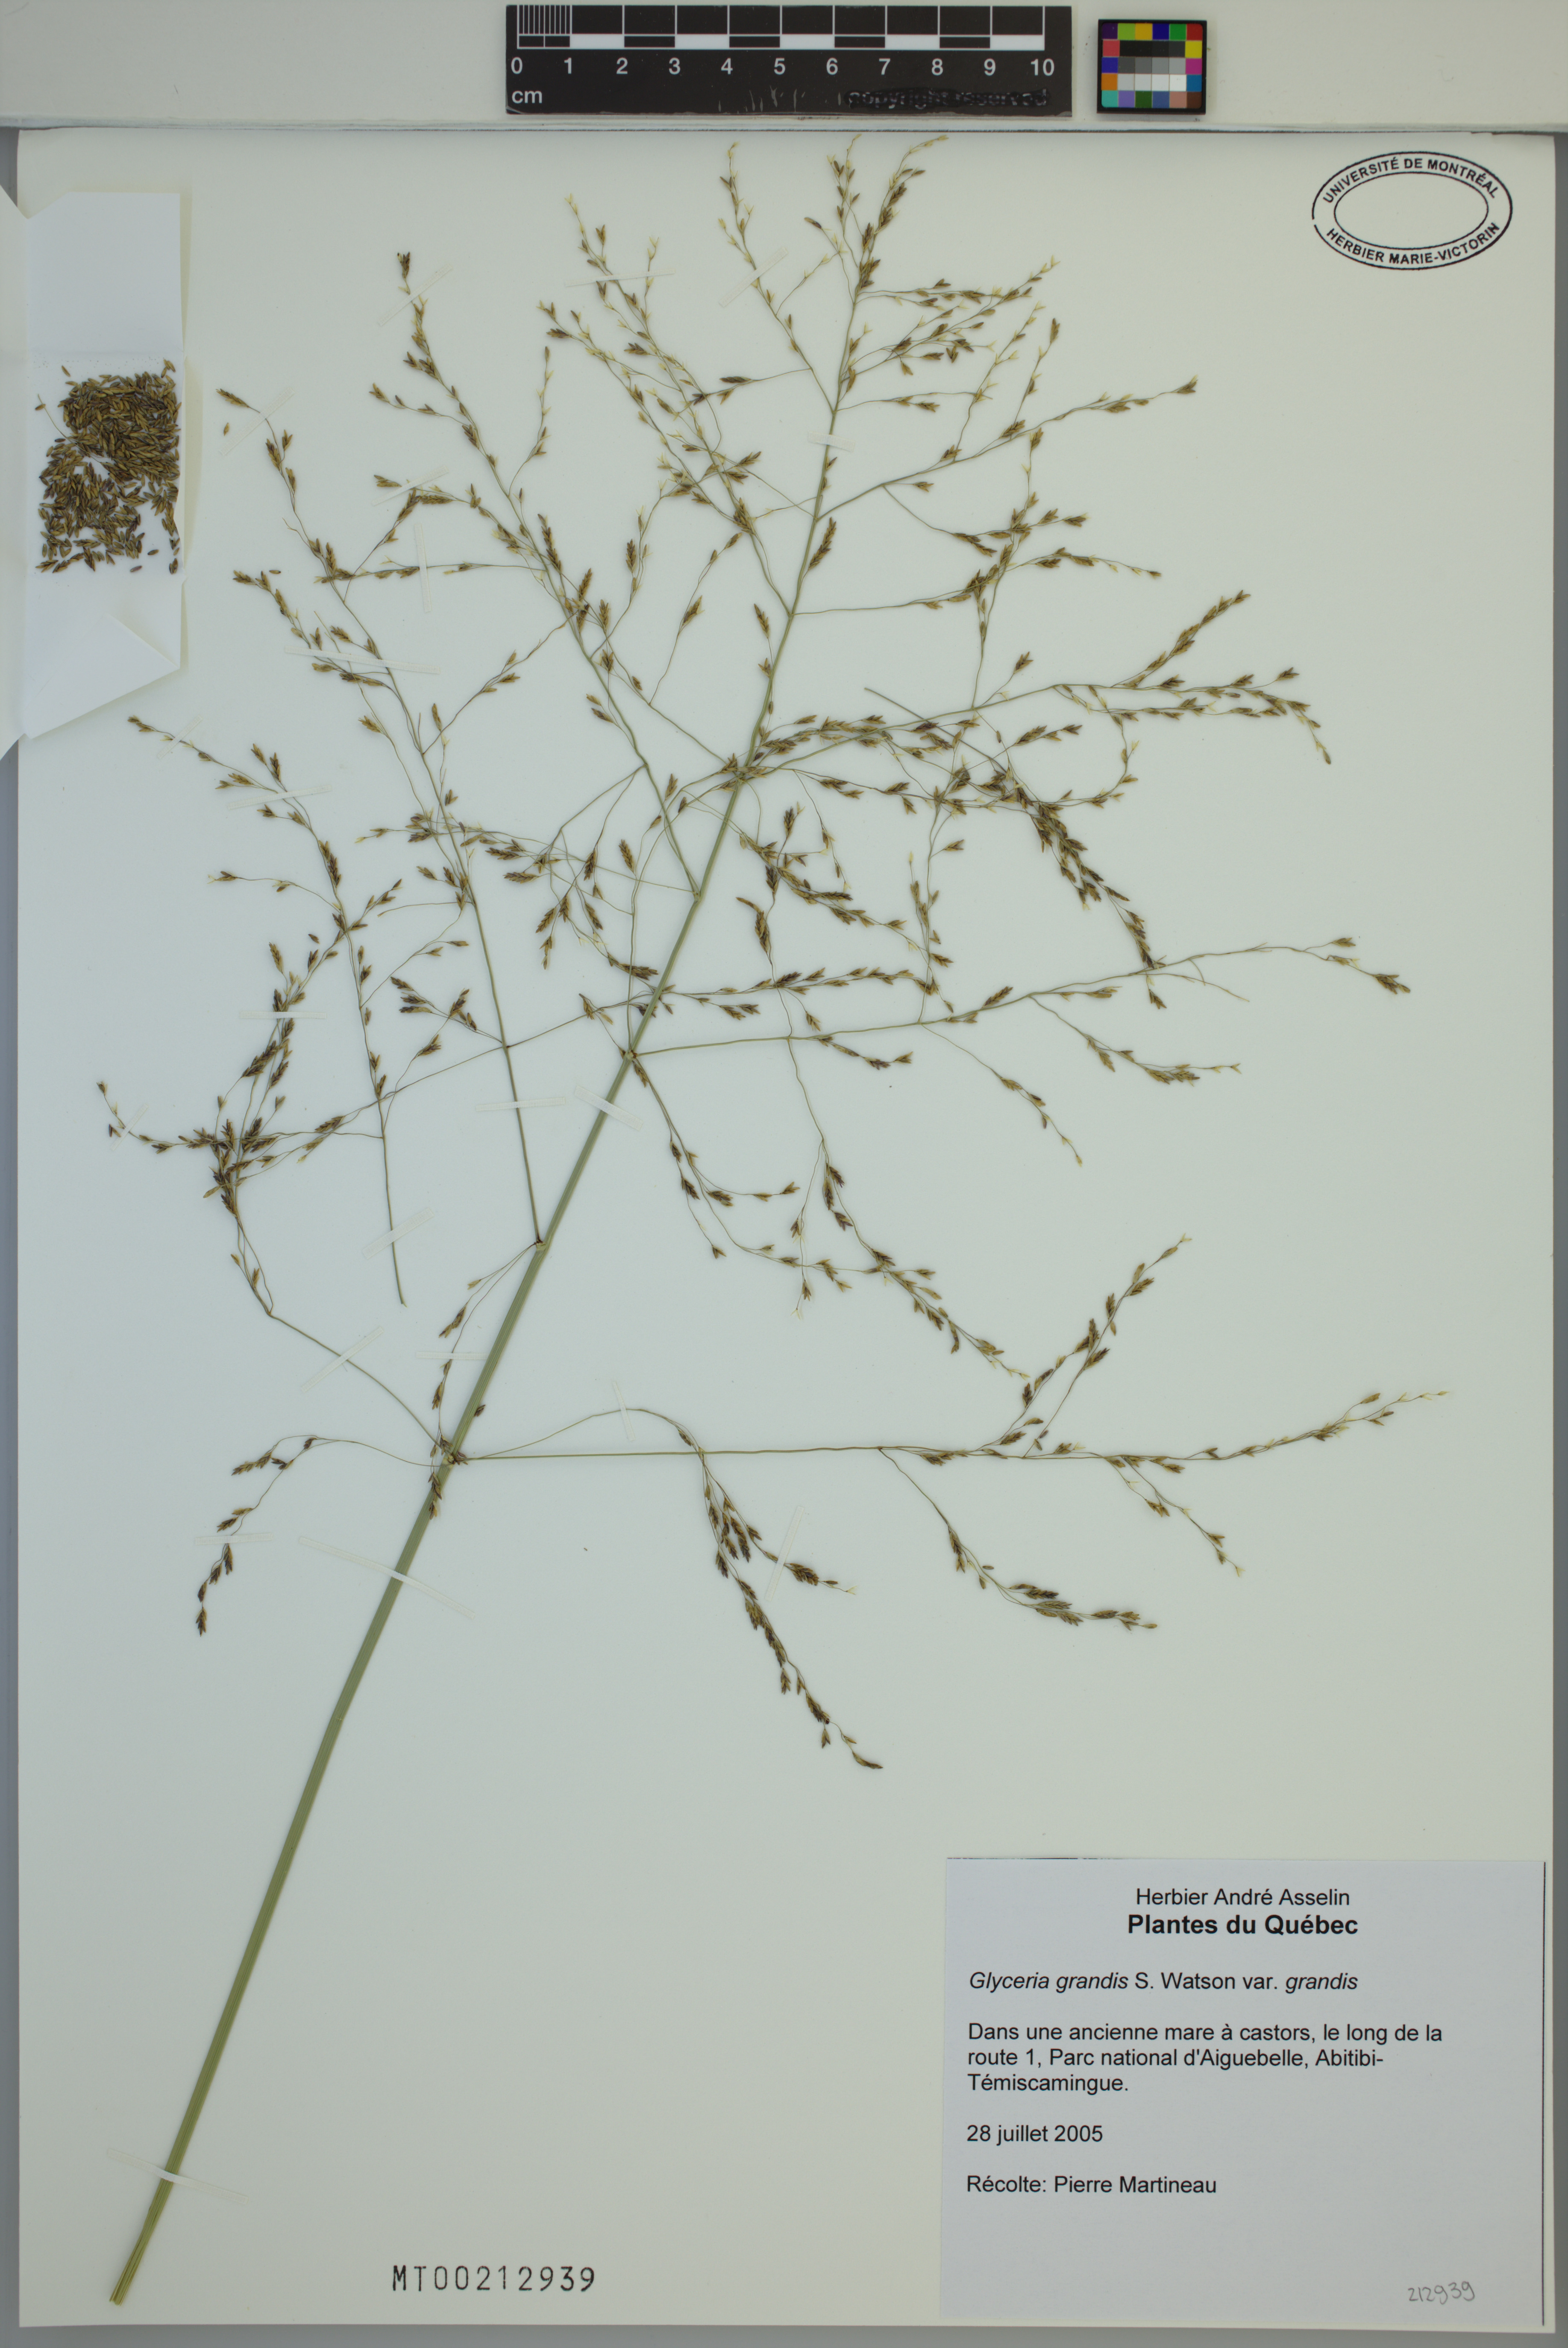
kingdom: Plantae
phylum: Tracheophyta
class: Liliopsida
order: Poales
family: Poaceae
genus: Glyceria
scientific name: Glyceria grandis
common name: American glyceria
